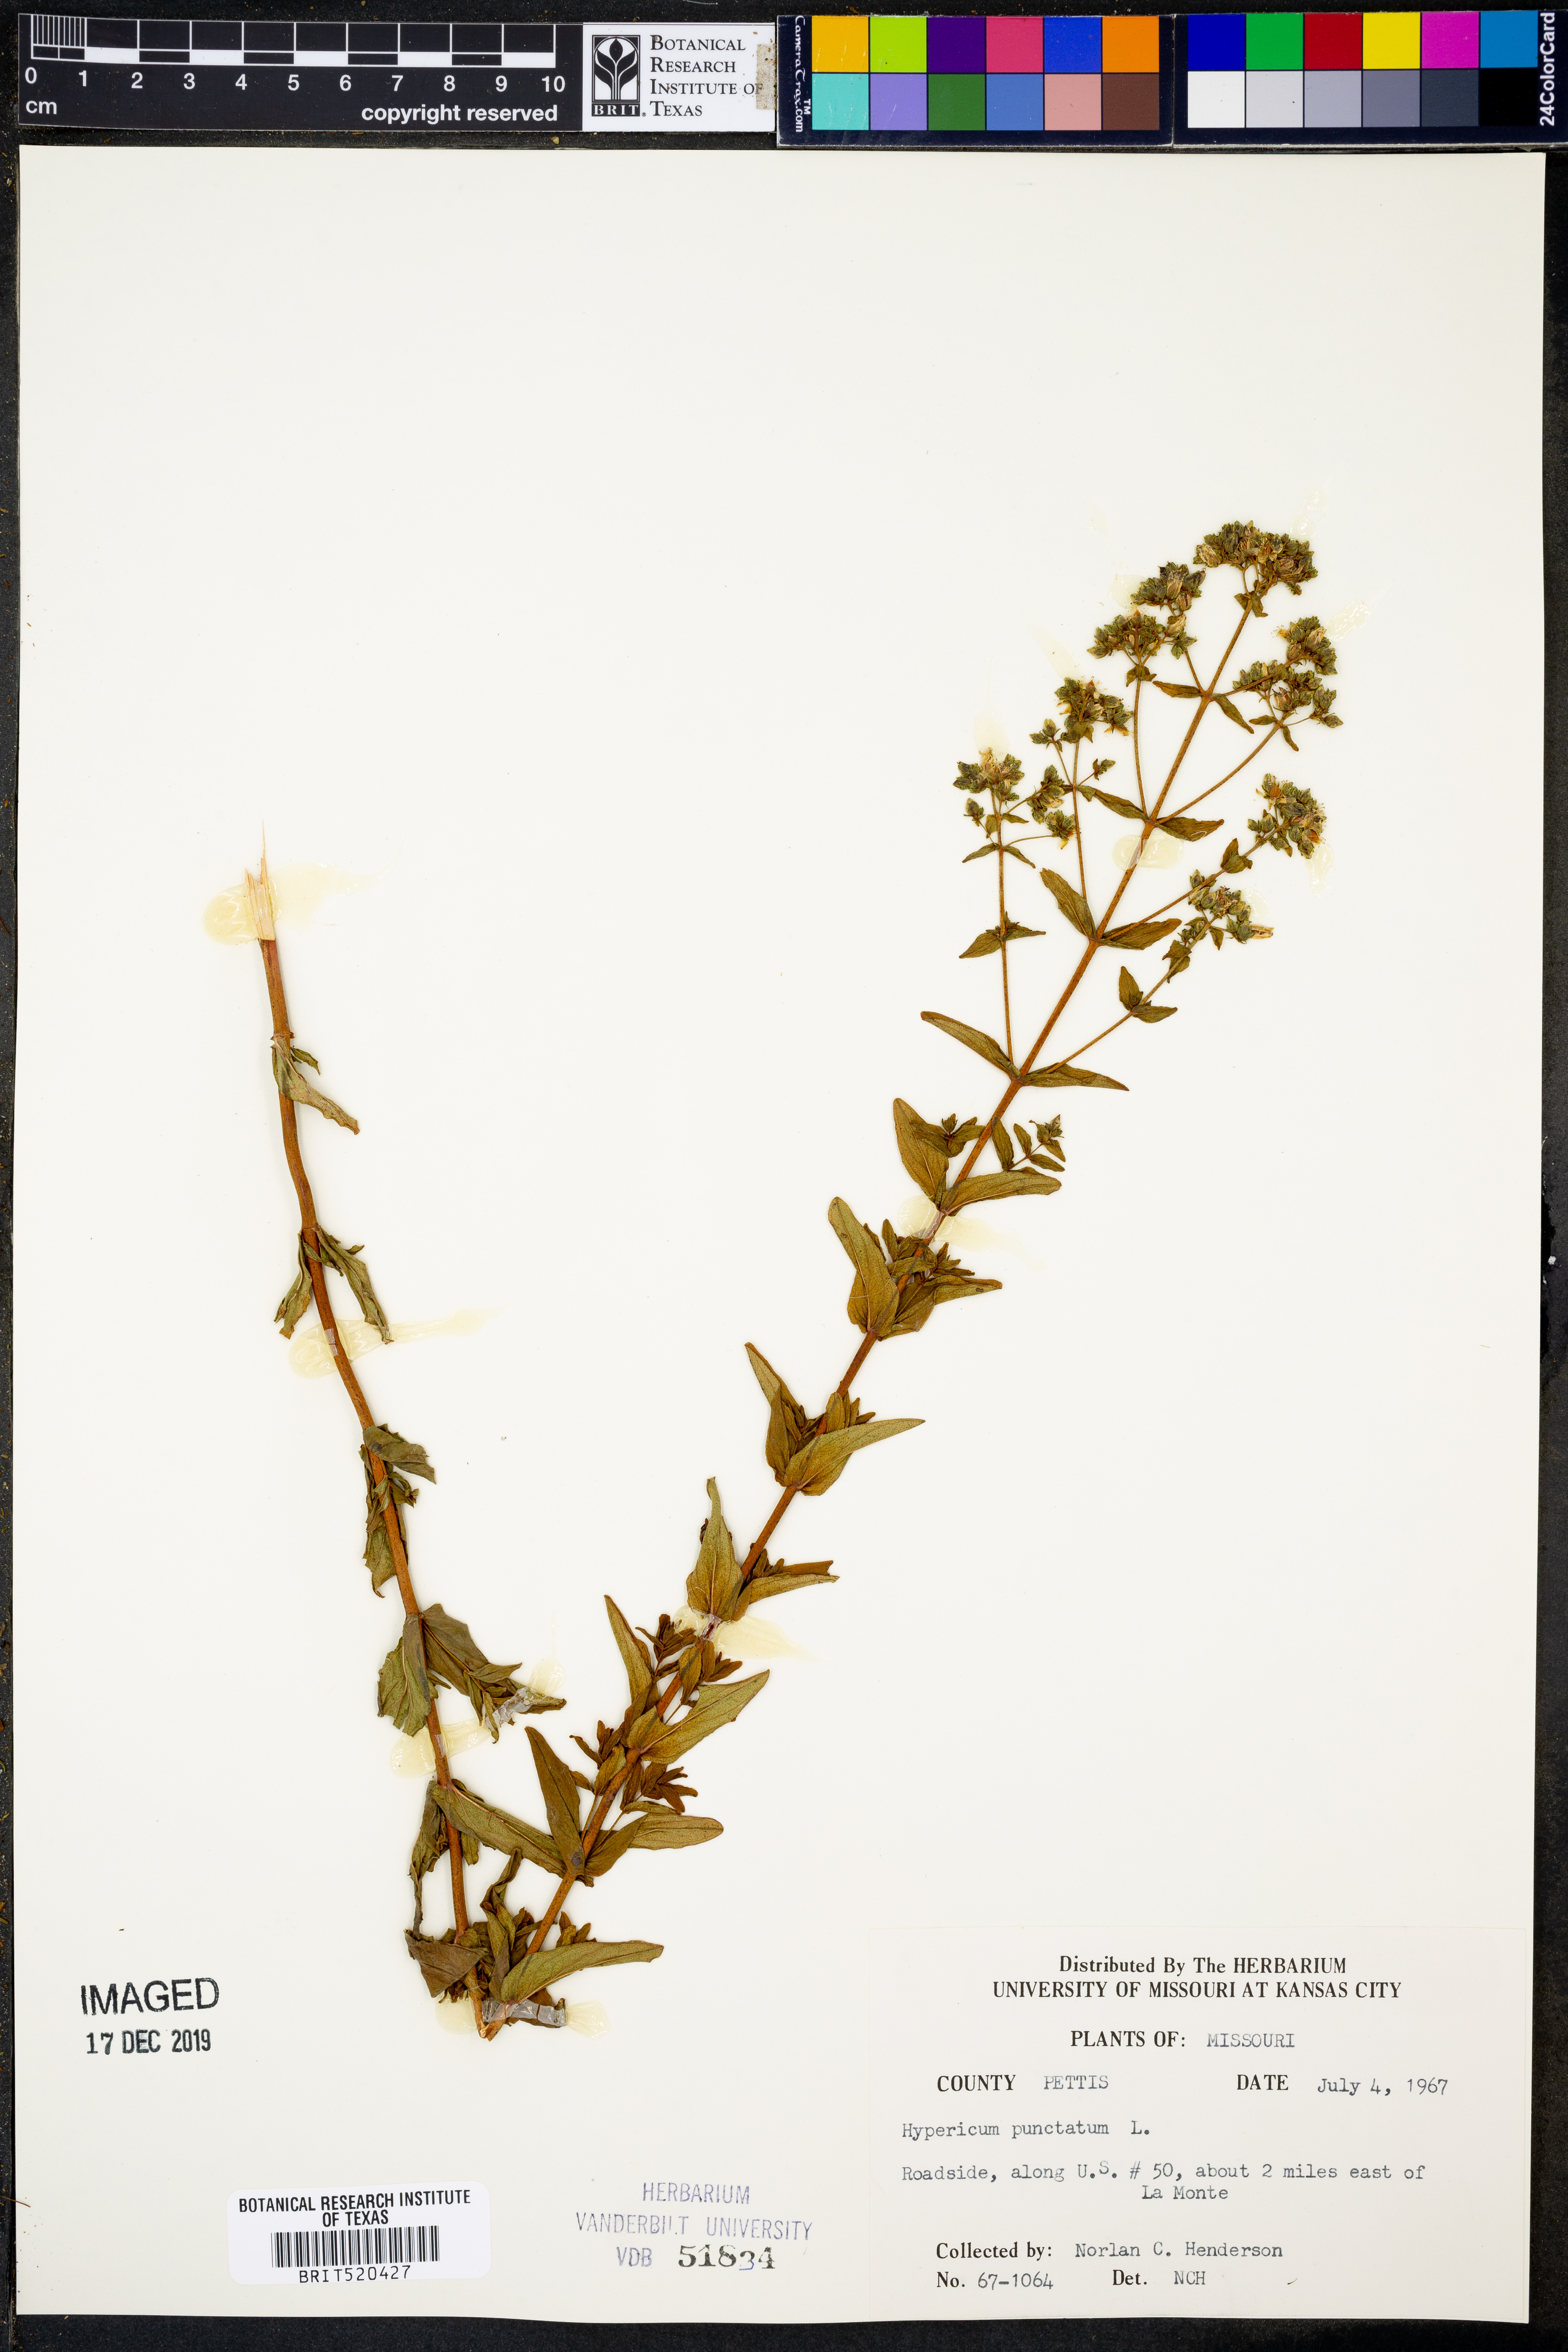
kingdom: Plantae
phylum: Tracheophyta
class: Magnoliopsida
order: Malpighiales
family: Hypericaceae
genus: Hypericum
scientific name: Hypericum punctatum
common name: Spotted st. john's-wort
